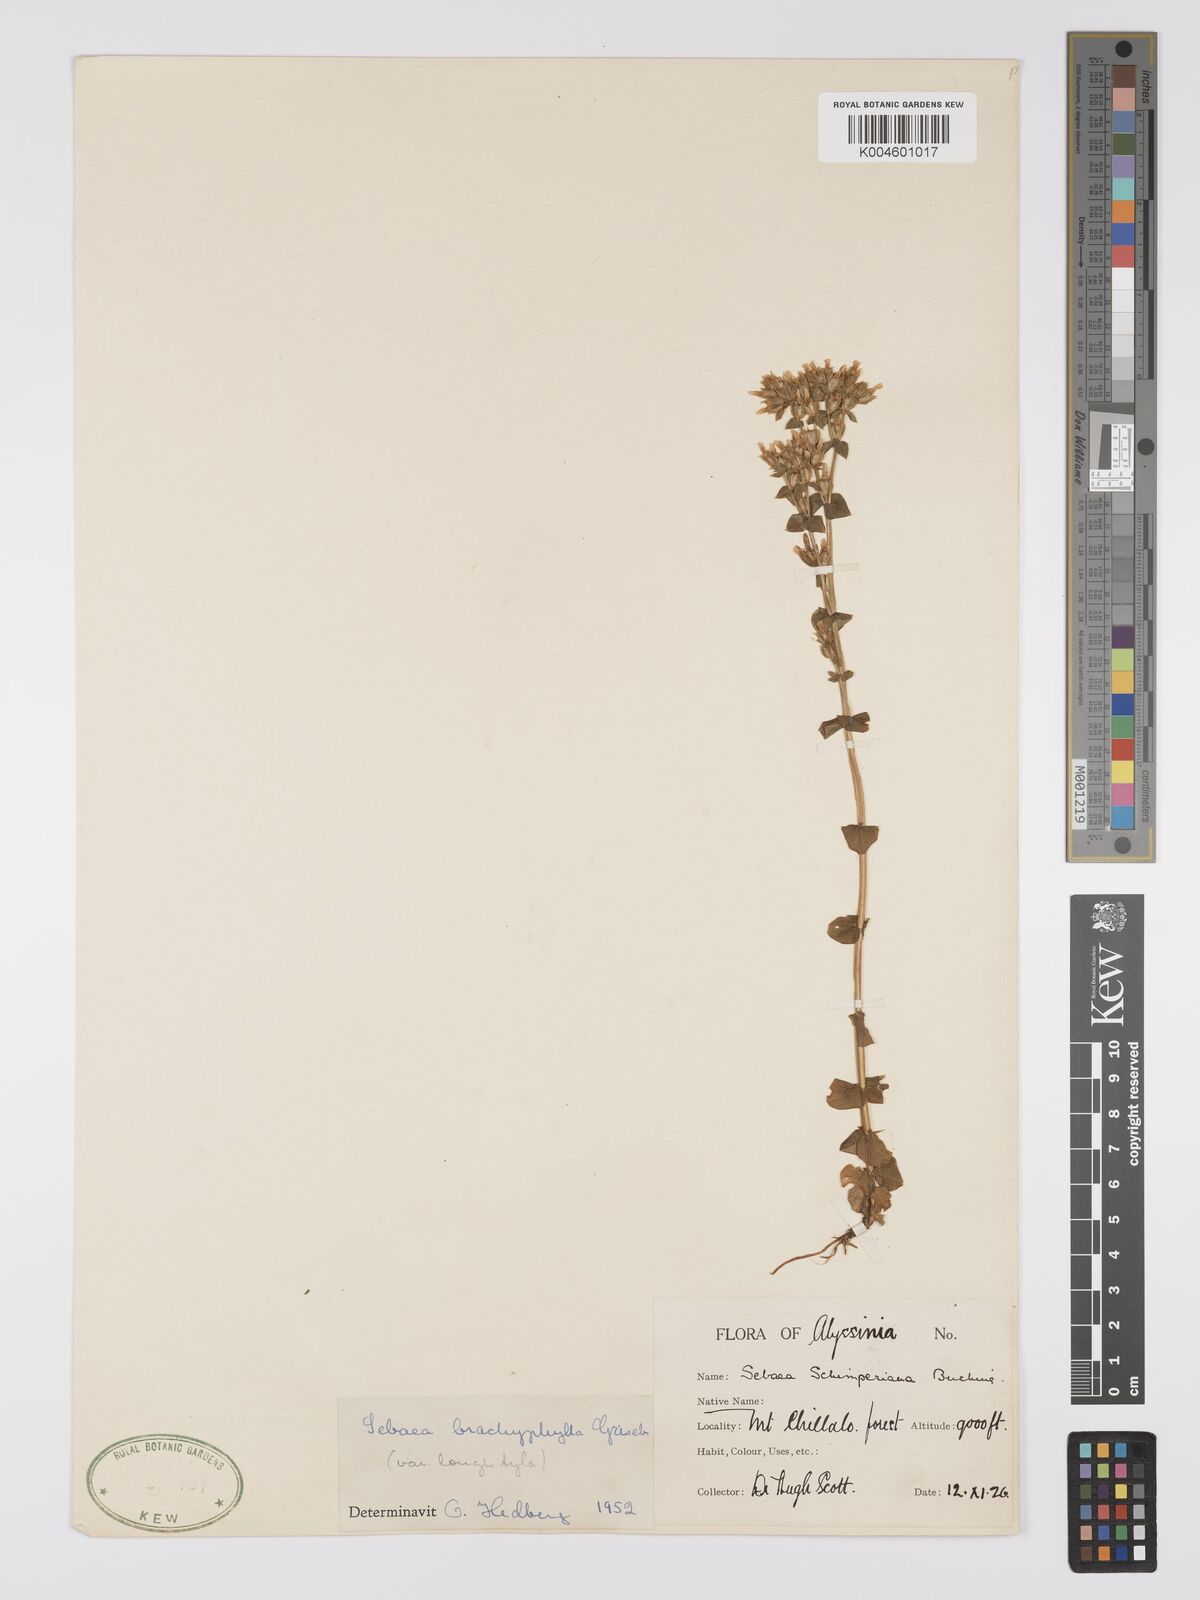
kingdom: Plantae
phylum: Tracheophyta
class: Magnoliopsida
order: Gentianales
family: Gentianaceae
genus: Sebaea
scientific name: Sebaea brachyphylla
